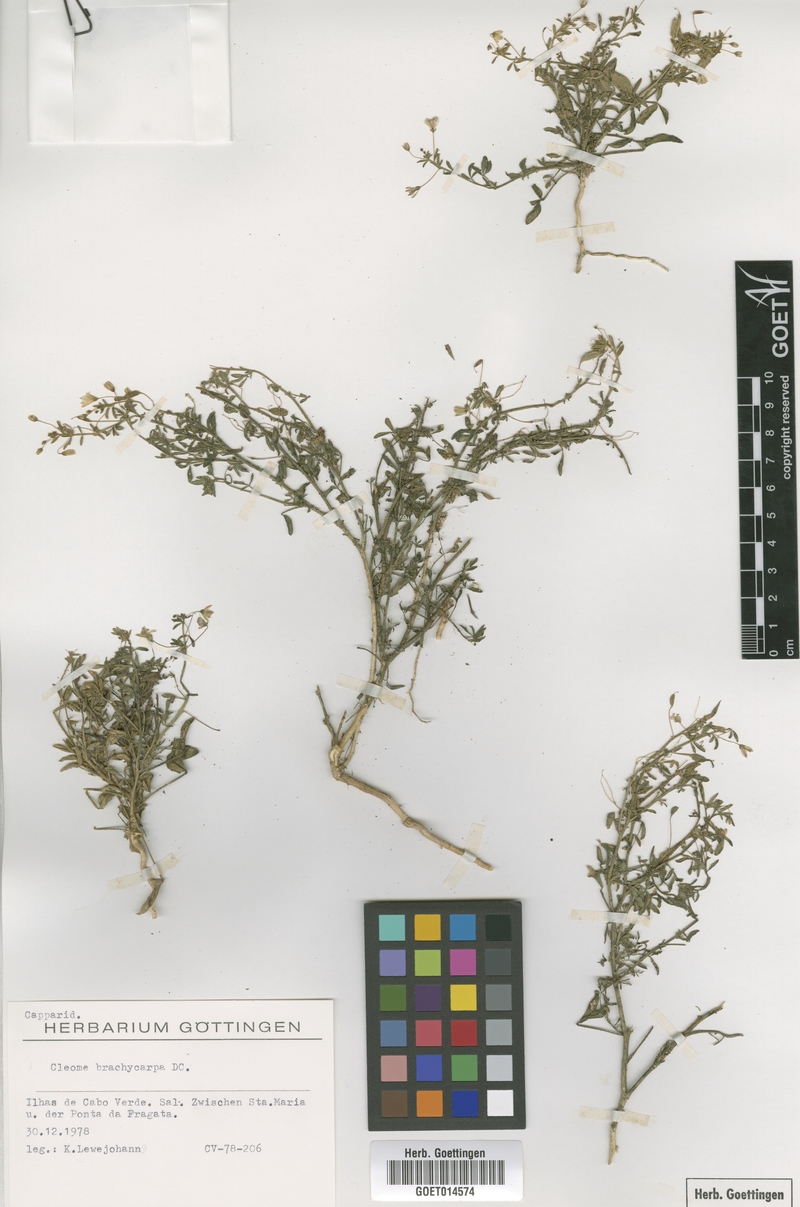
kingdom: Plantae
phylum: Tracheophyta
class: Magnoliopsida
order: Brassicales
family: Cleomaceae
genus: Stylidocleome
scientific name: Stylidocleome brachycarpa
